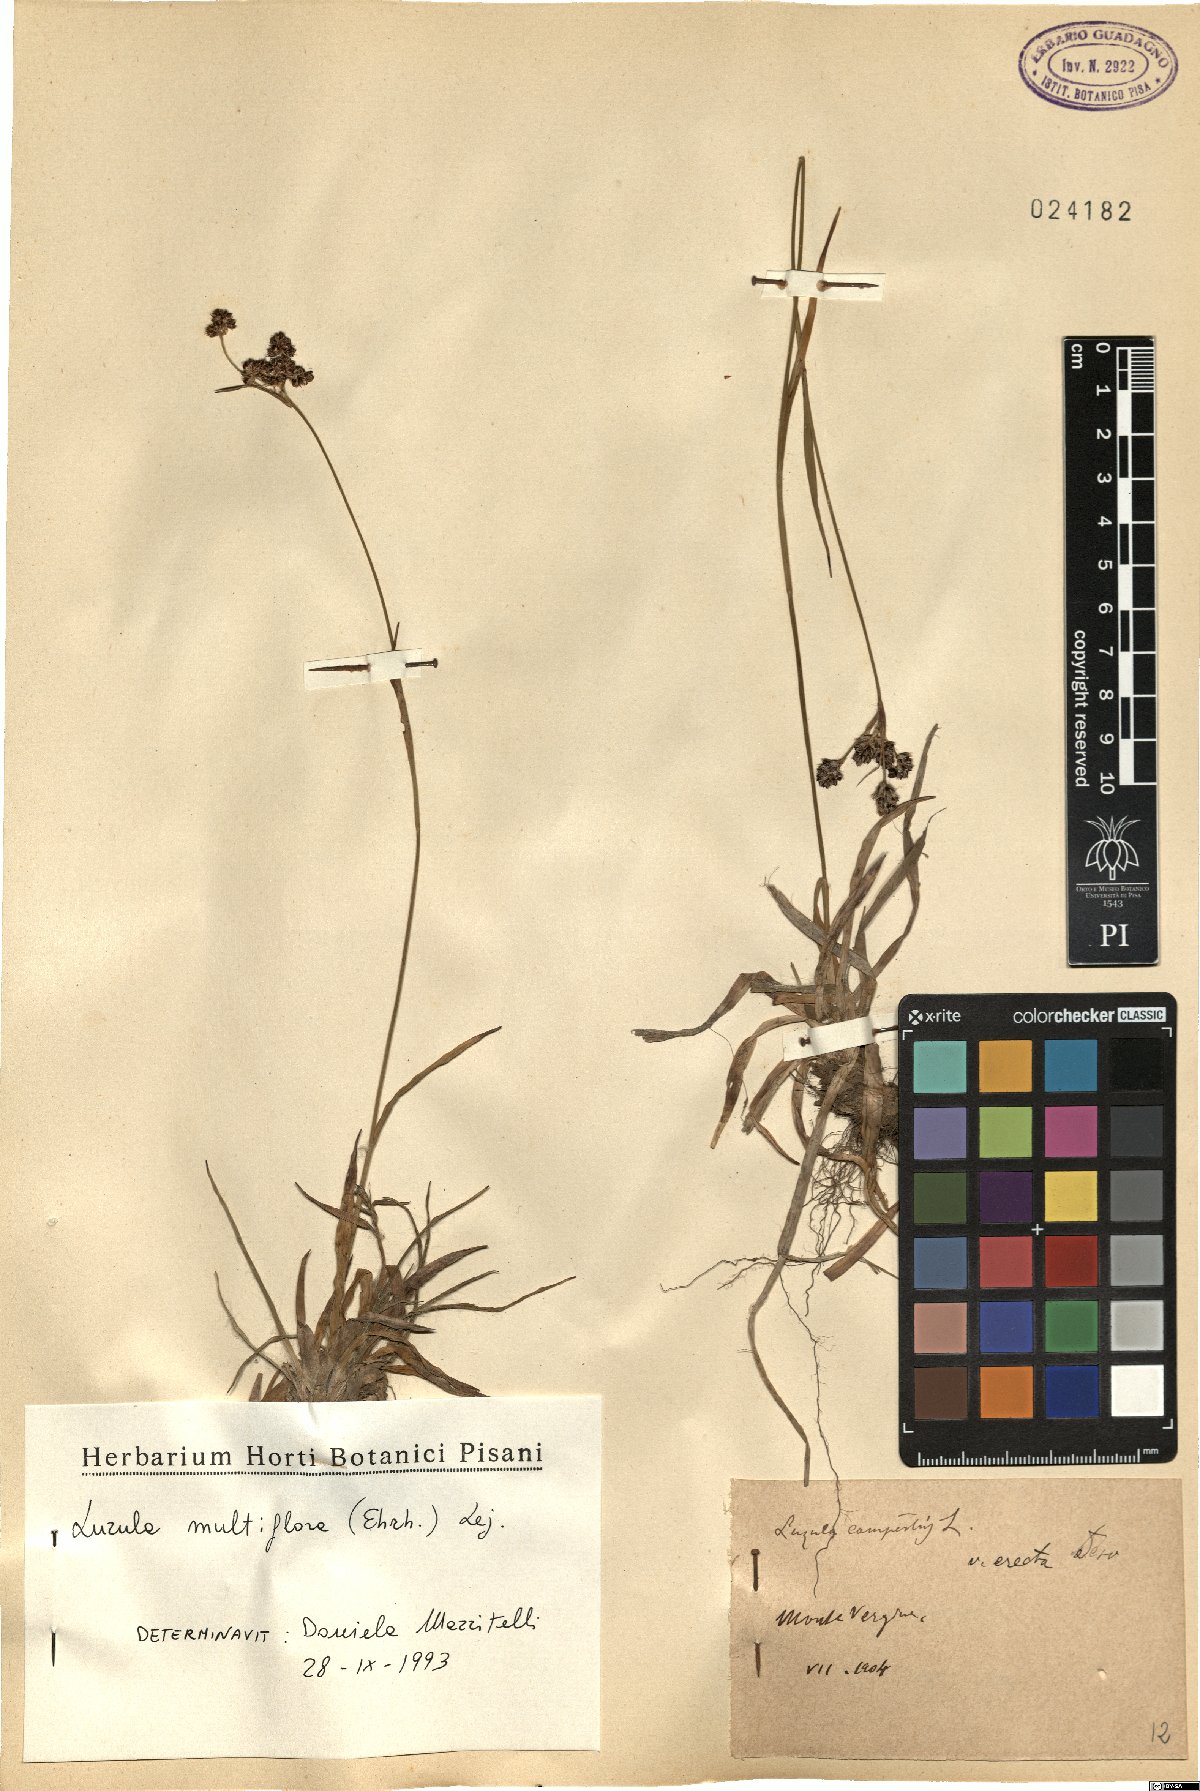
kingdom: Plantae
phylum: Tracheophyta
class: Liliopsida
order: Poales
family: Juncaceae
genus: Luzula
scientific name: Luzula multiflora
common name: Heath wood-rush
